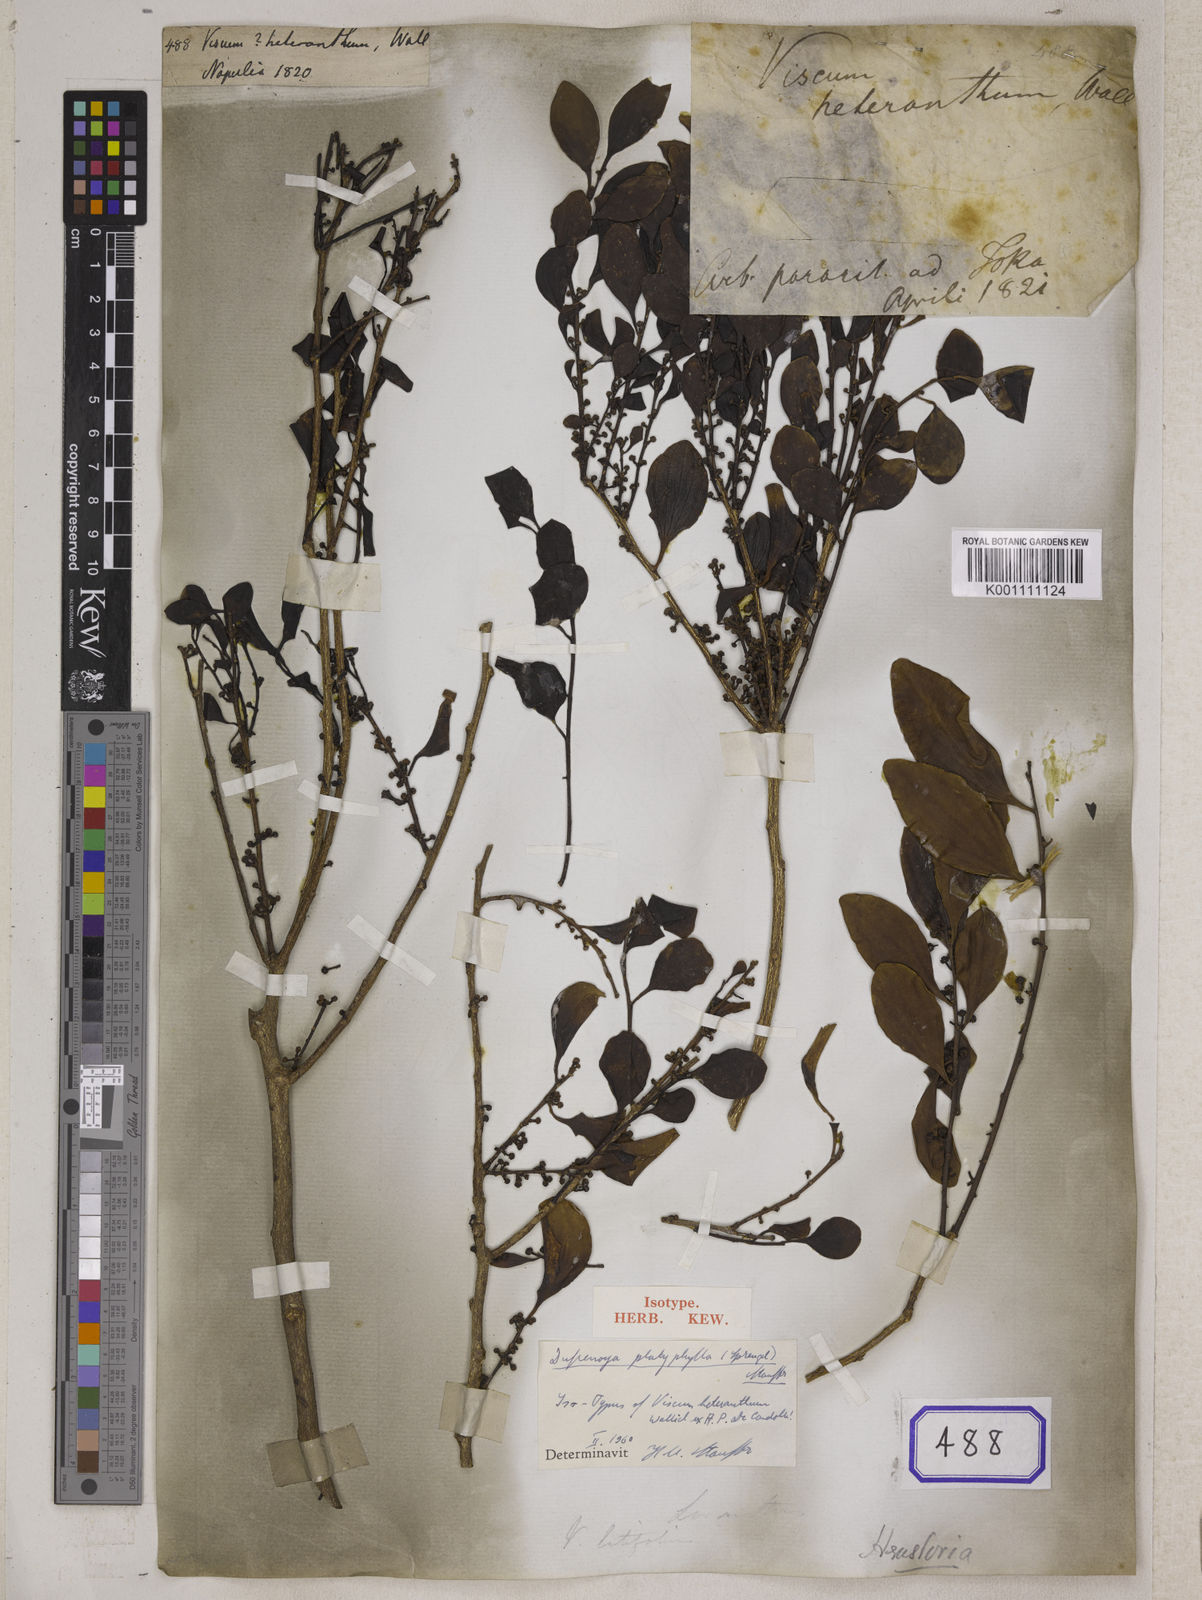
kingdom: Plantae
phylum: Tracheophyta
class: Magnoliopsida
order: Santalales
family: Viscaceae
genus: Viscum
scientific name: Viscum
